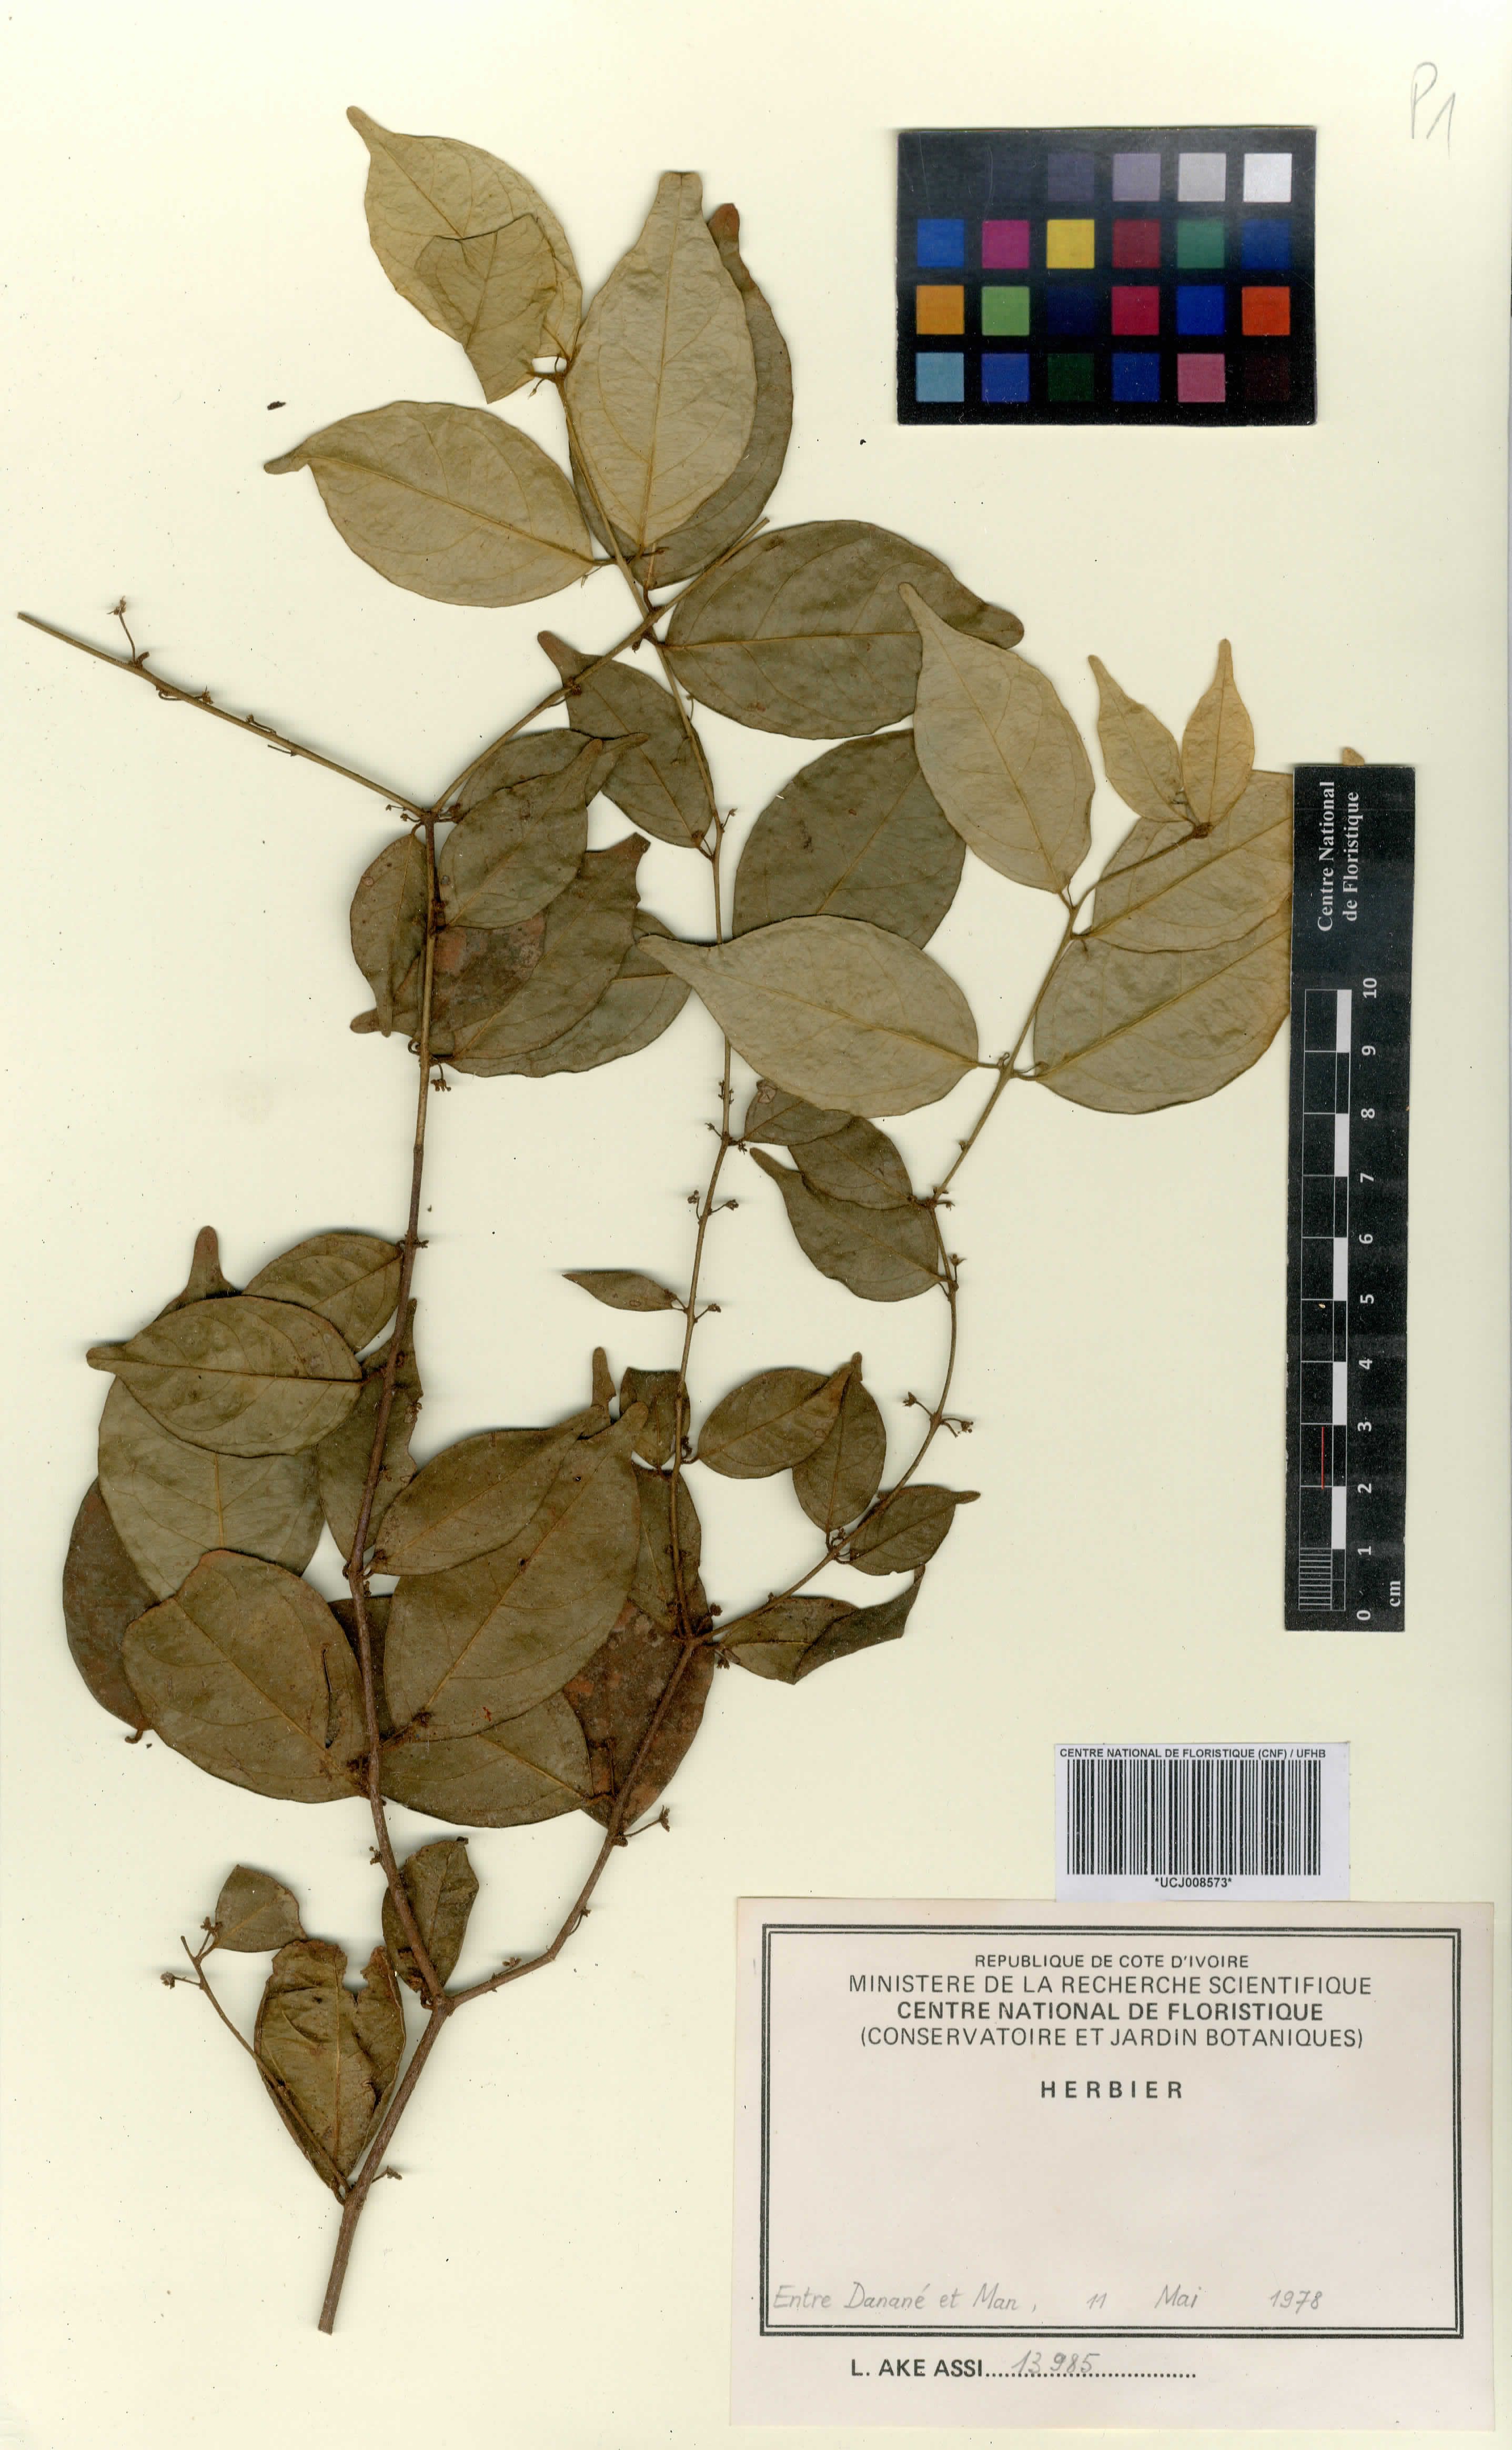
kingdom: Plantae
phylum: Tracheophyta
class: Magnoliopsida
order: Celastrales
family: Celastraceae
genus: Salacia
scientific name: Salacia caillei
